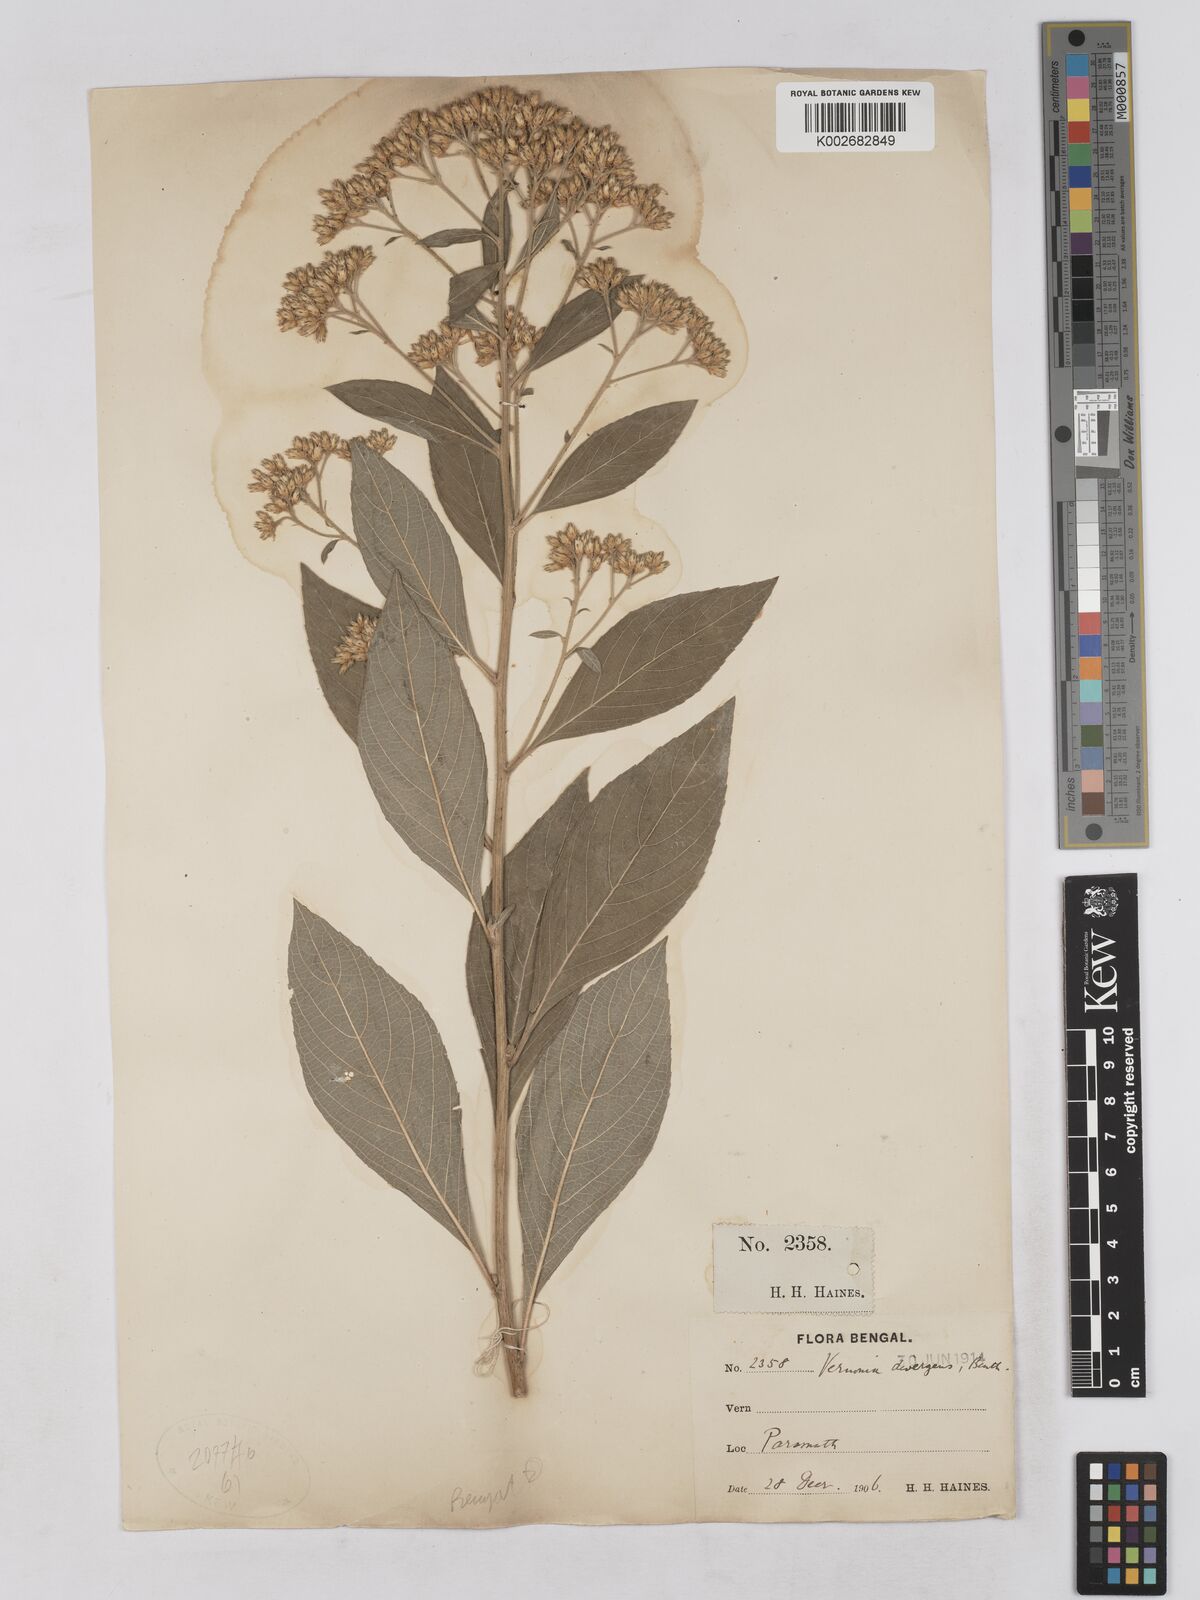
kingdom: Plantae
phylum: Tracheophyta
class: Magnoliopsida
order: Asterales
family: Asteraceae
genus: Acilepis
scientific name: Acilepis divergens
